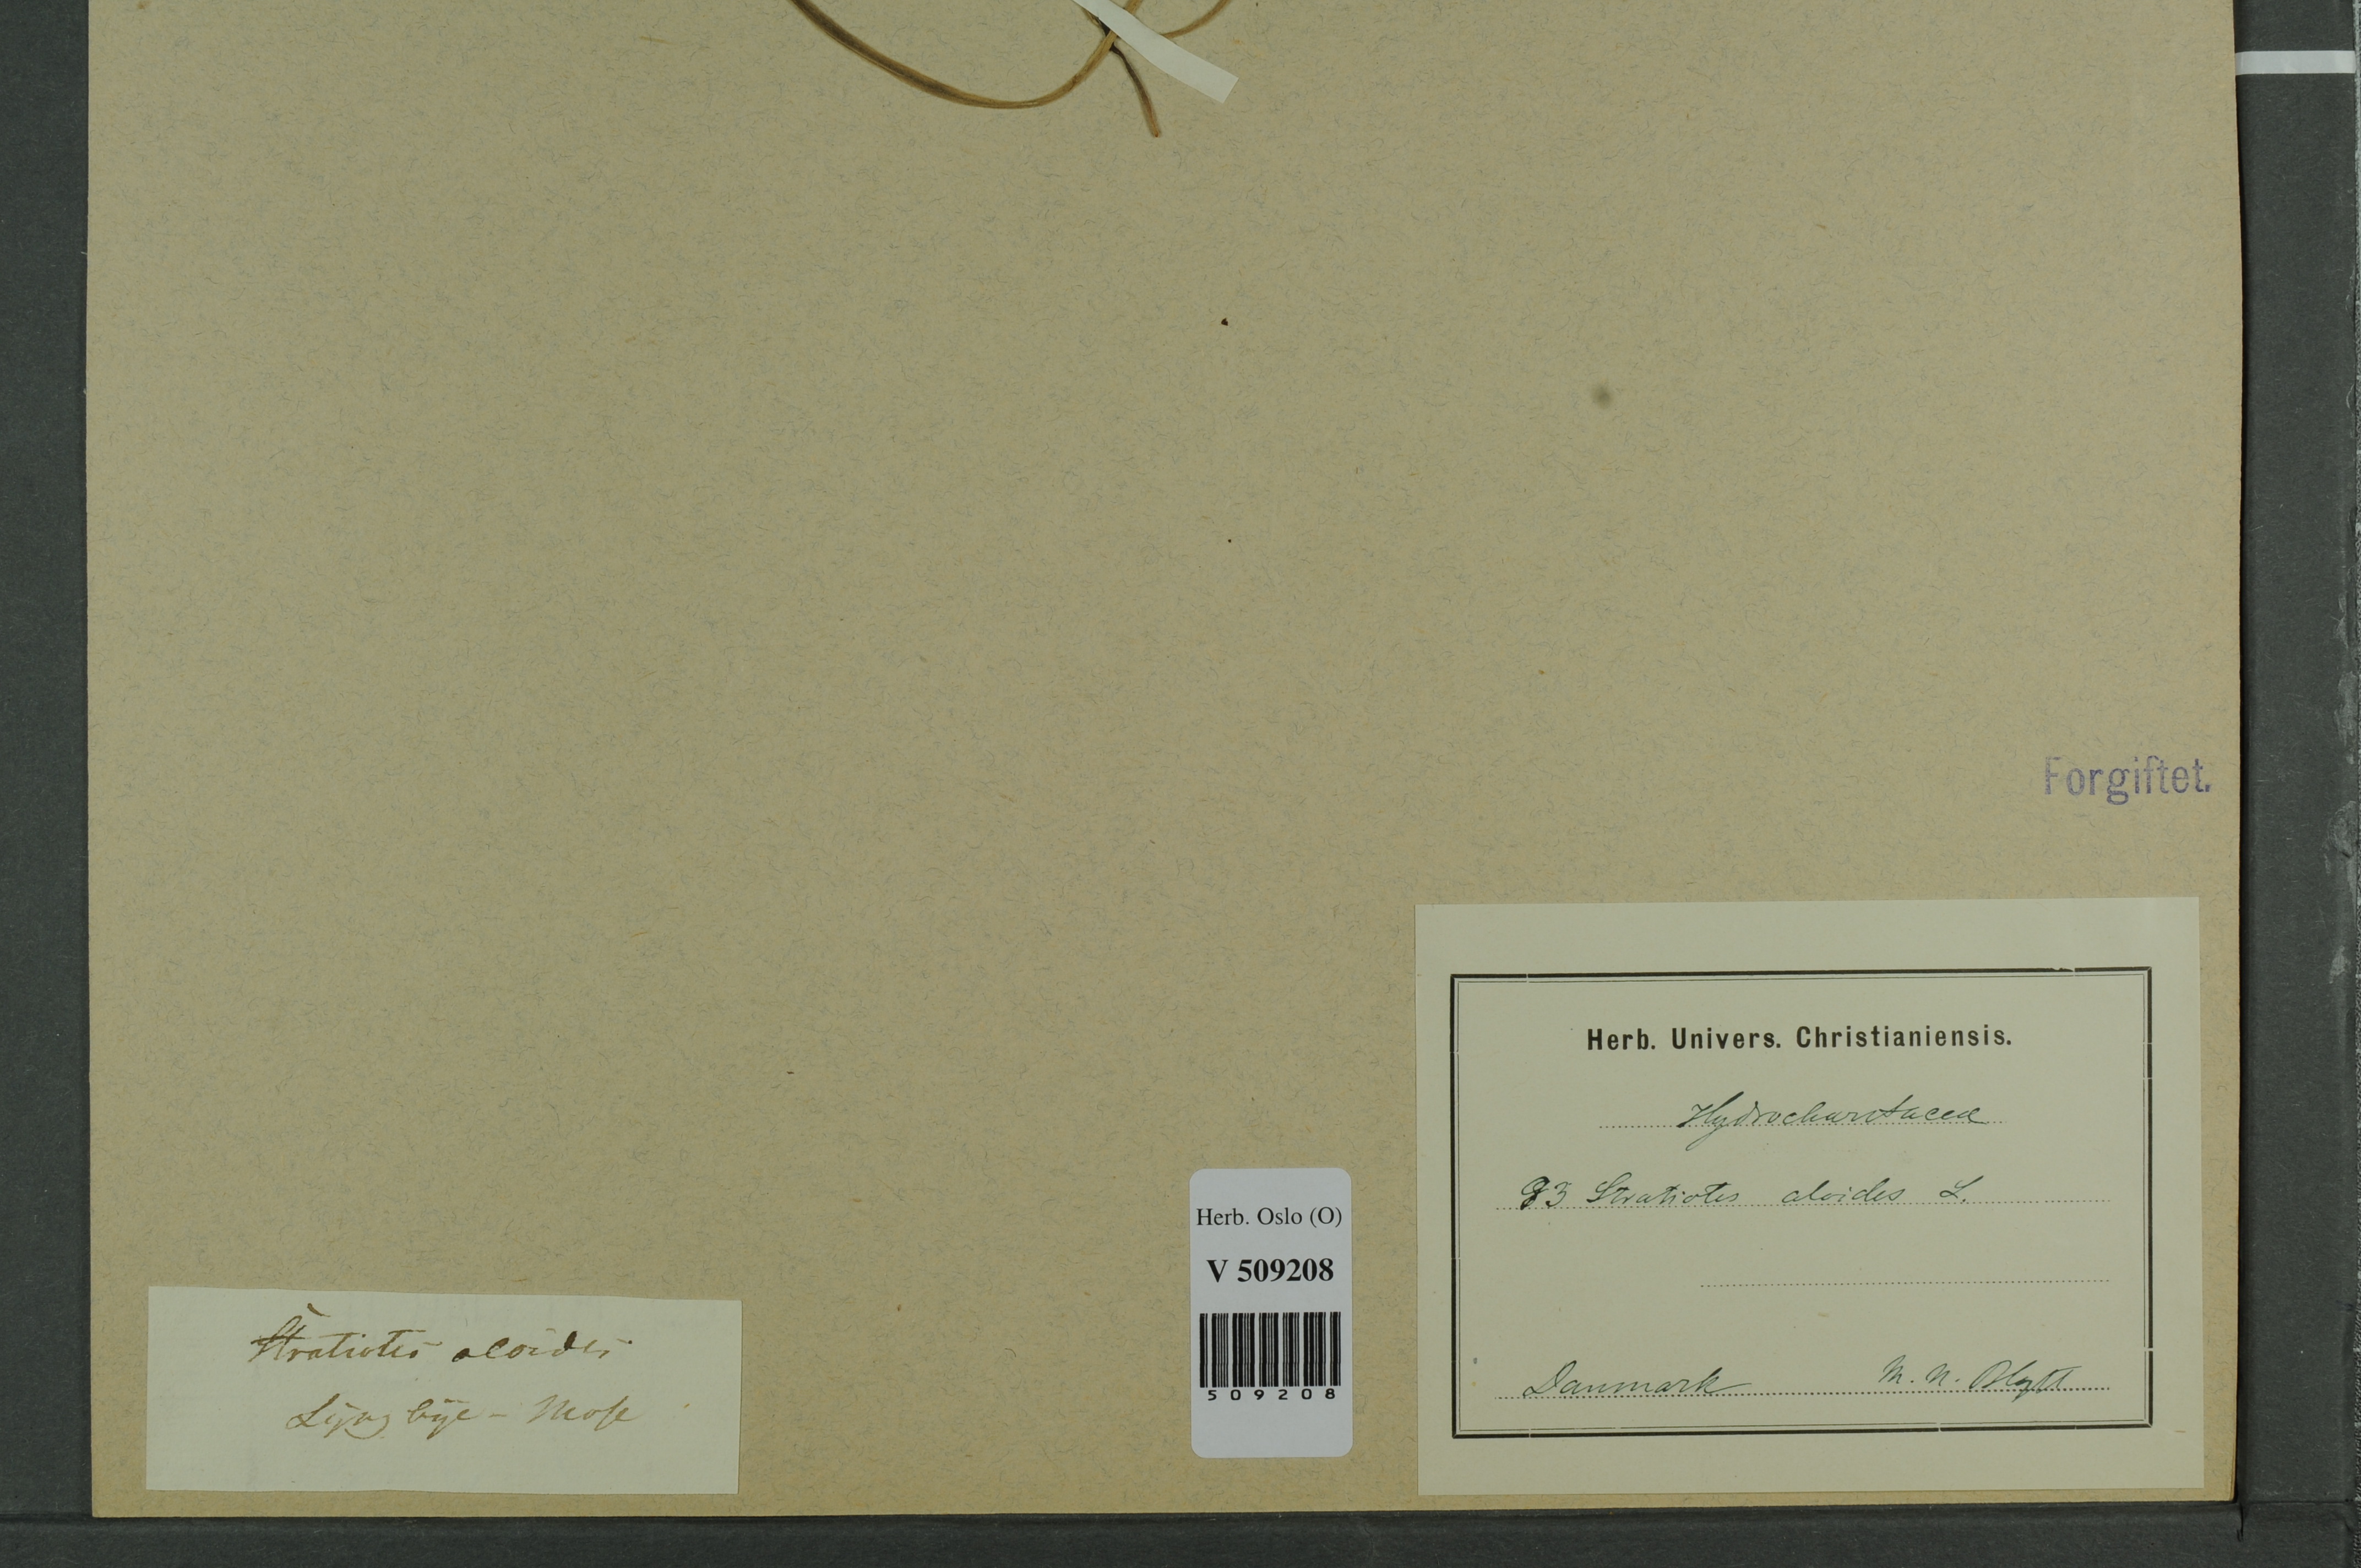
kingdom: Plantae
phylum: Tracheophyta
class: Liliopsida
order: Alismatales
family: Hydrocharitaceae
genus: Stratiotes
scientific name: Stratiotes aloides
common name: Water-soldier
